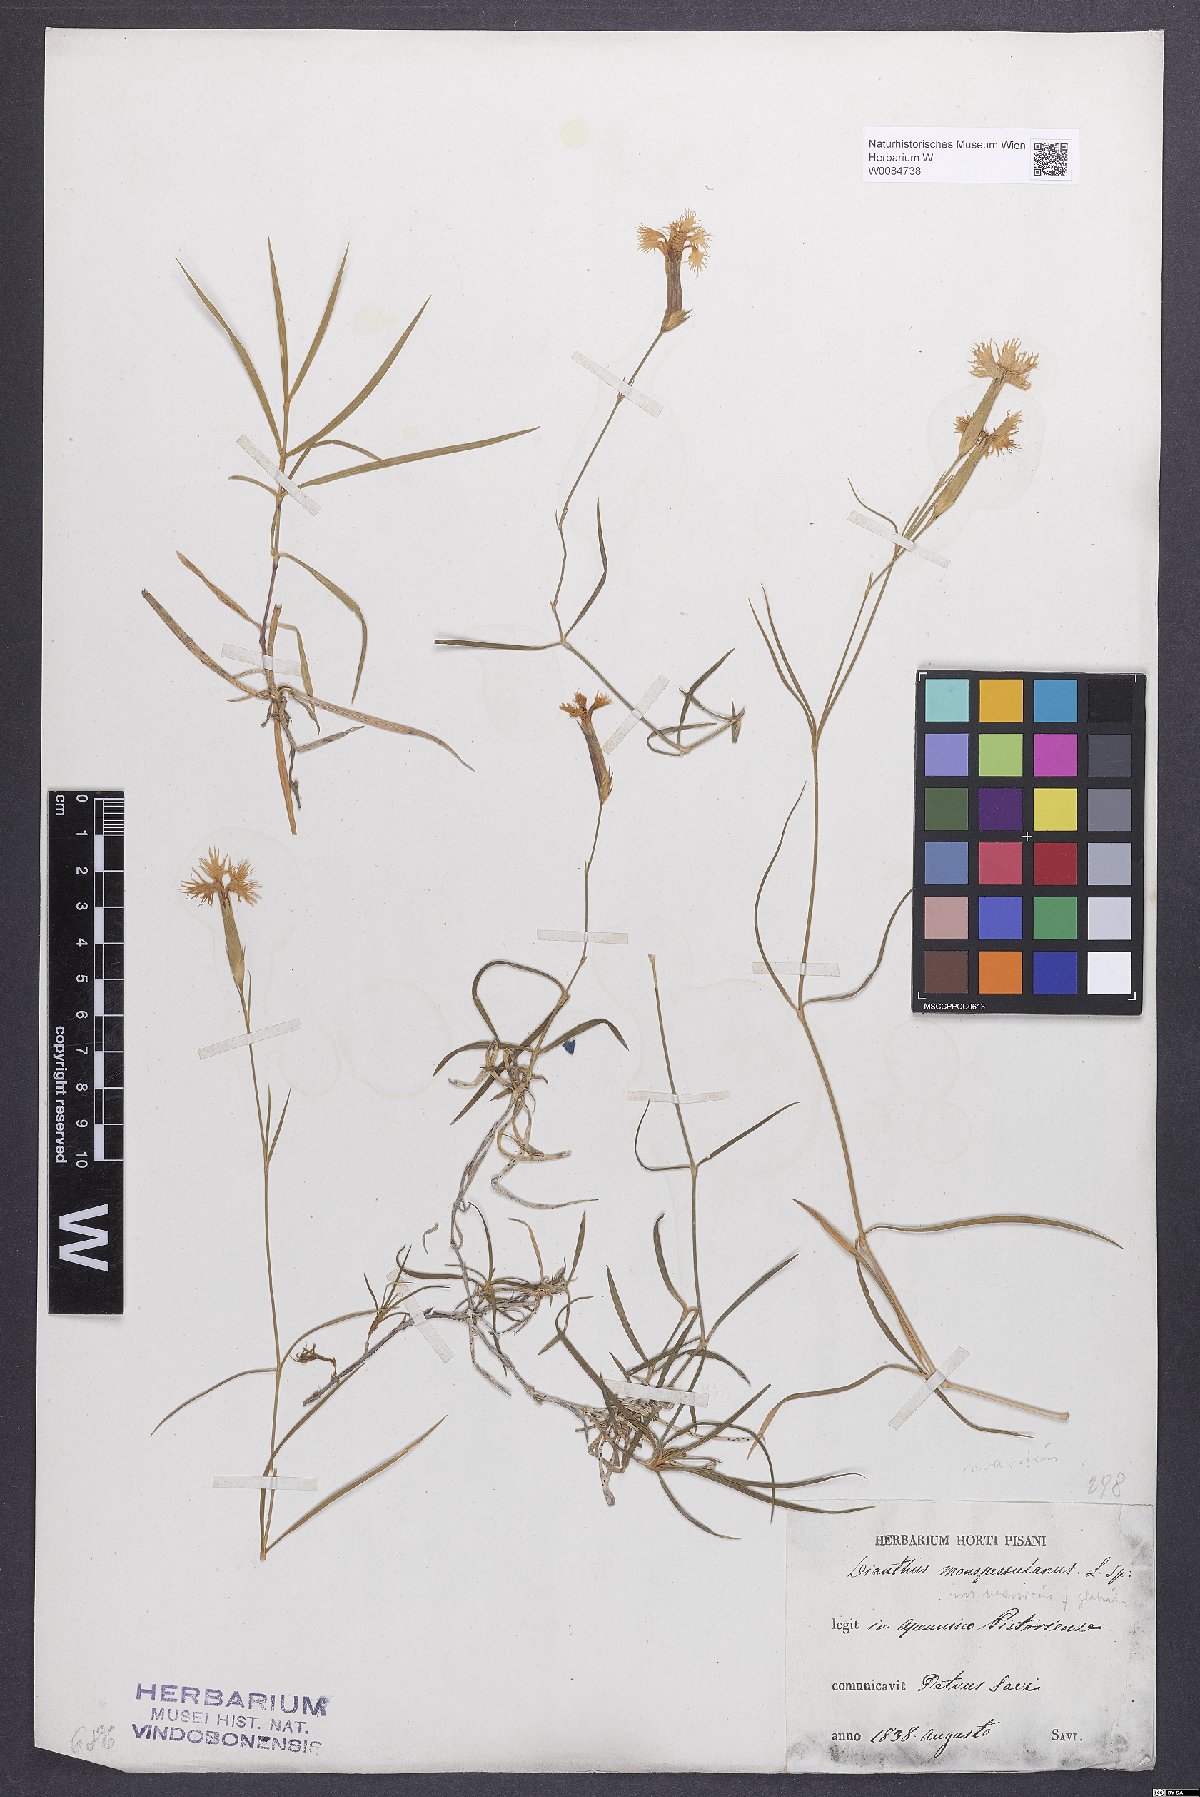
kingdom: Plantae
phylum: Tracheophyta
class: Magnoliopsida
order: Caryophyllales
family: Caryophyllaceae
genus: Dianthus
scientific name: Dianthus hyssopifolius
